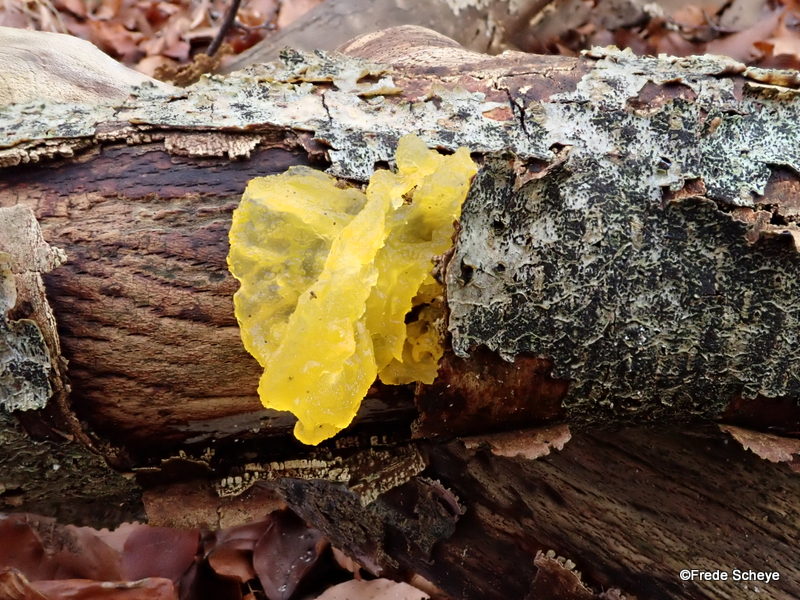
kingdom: Fungi
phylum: Basidiomycota
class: Tremellomycetes
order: Tremellales
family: Tremellaceae
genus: Tremella
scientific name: Tremella mesenterica
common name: gul bævresvamp
